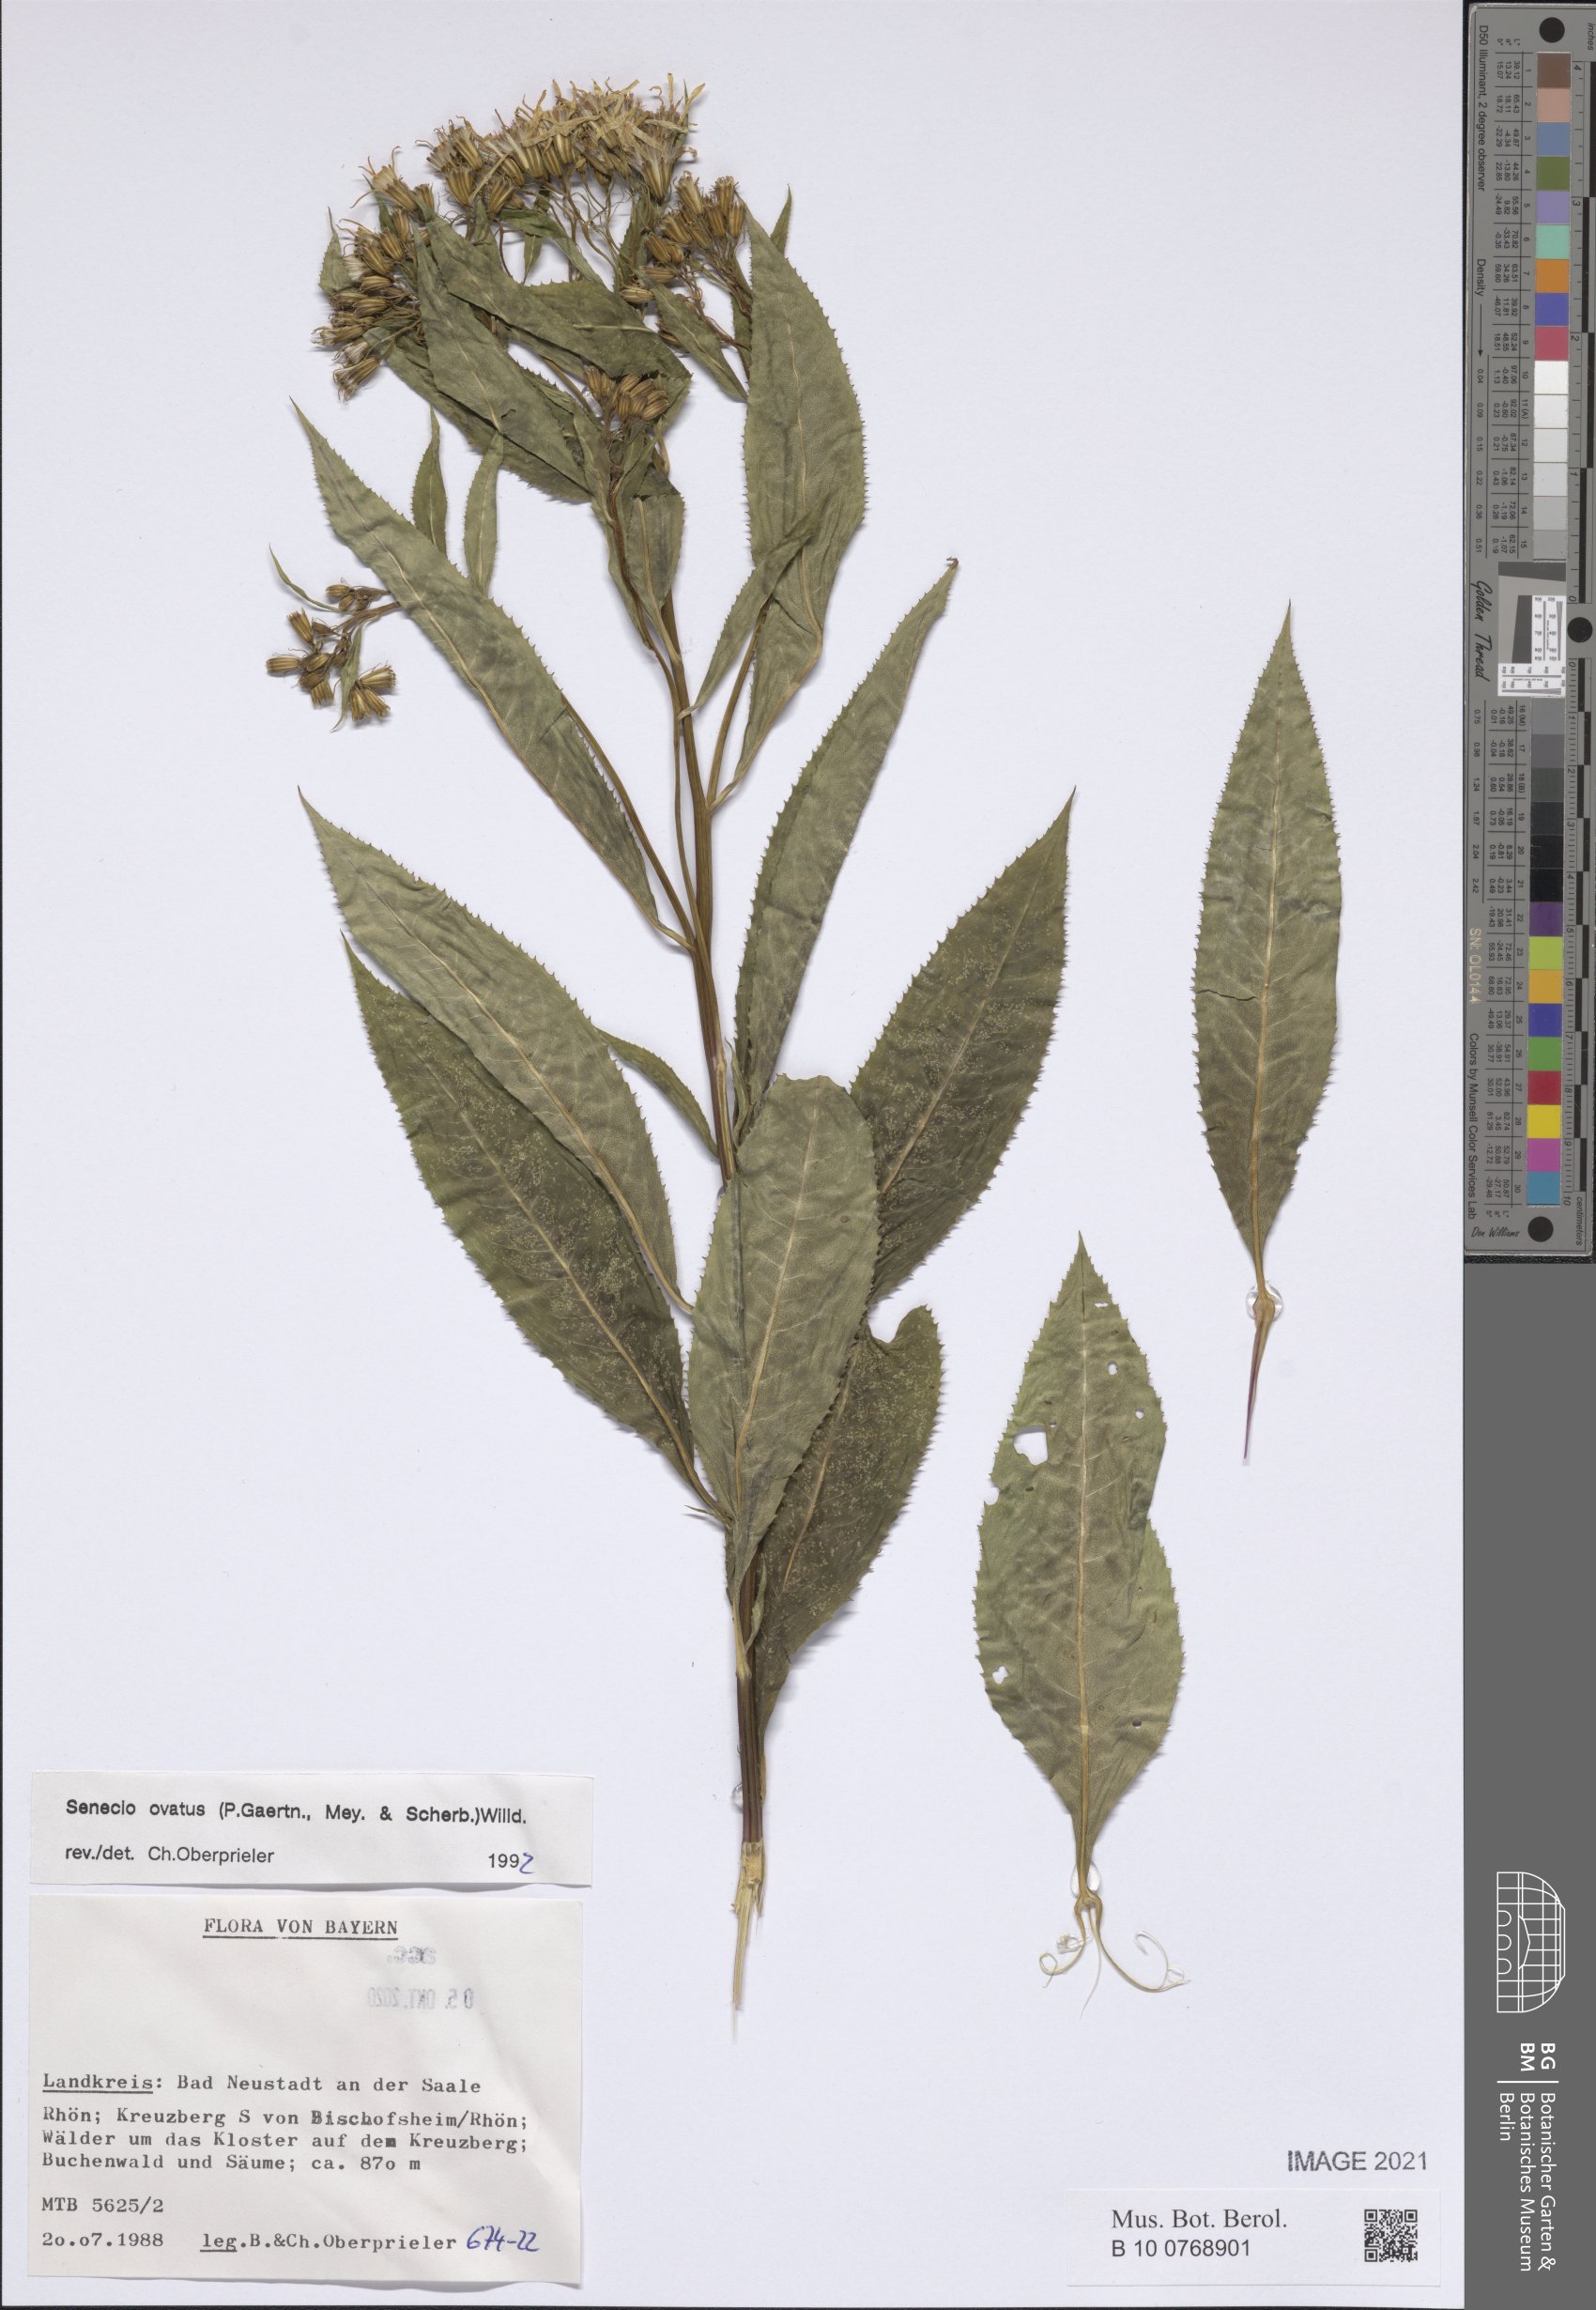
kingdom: Plantae
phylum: Tracheophyta
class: Magnoliopsida
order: Asterales
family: Asteraceae
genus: Senecio
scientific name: Senecio ovatus
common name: Wood ragwort
